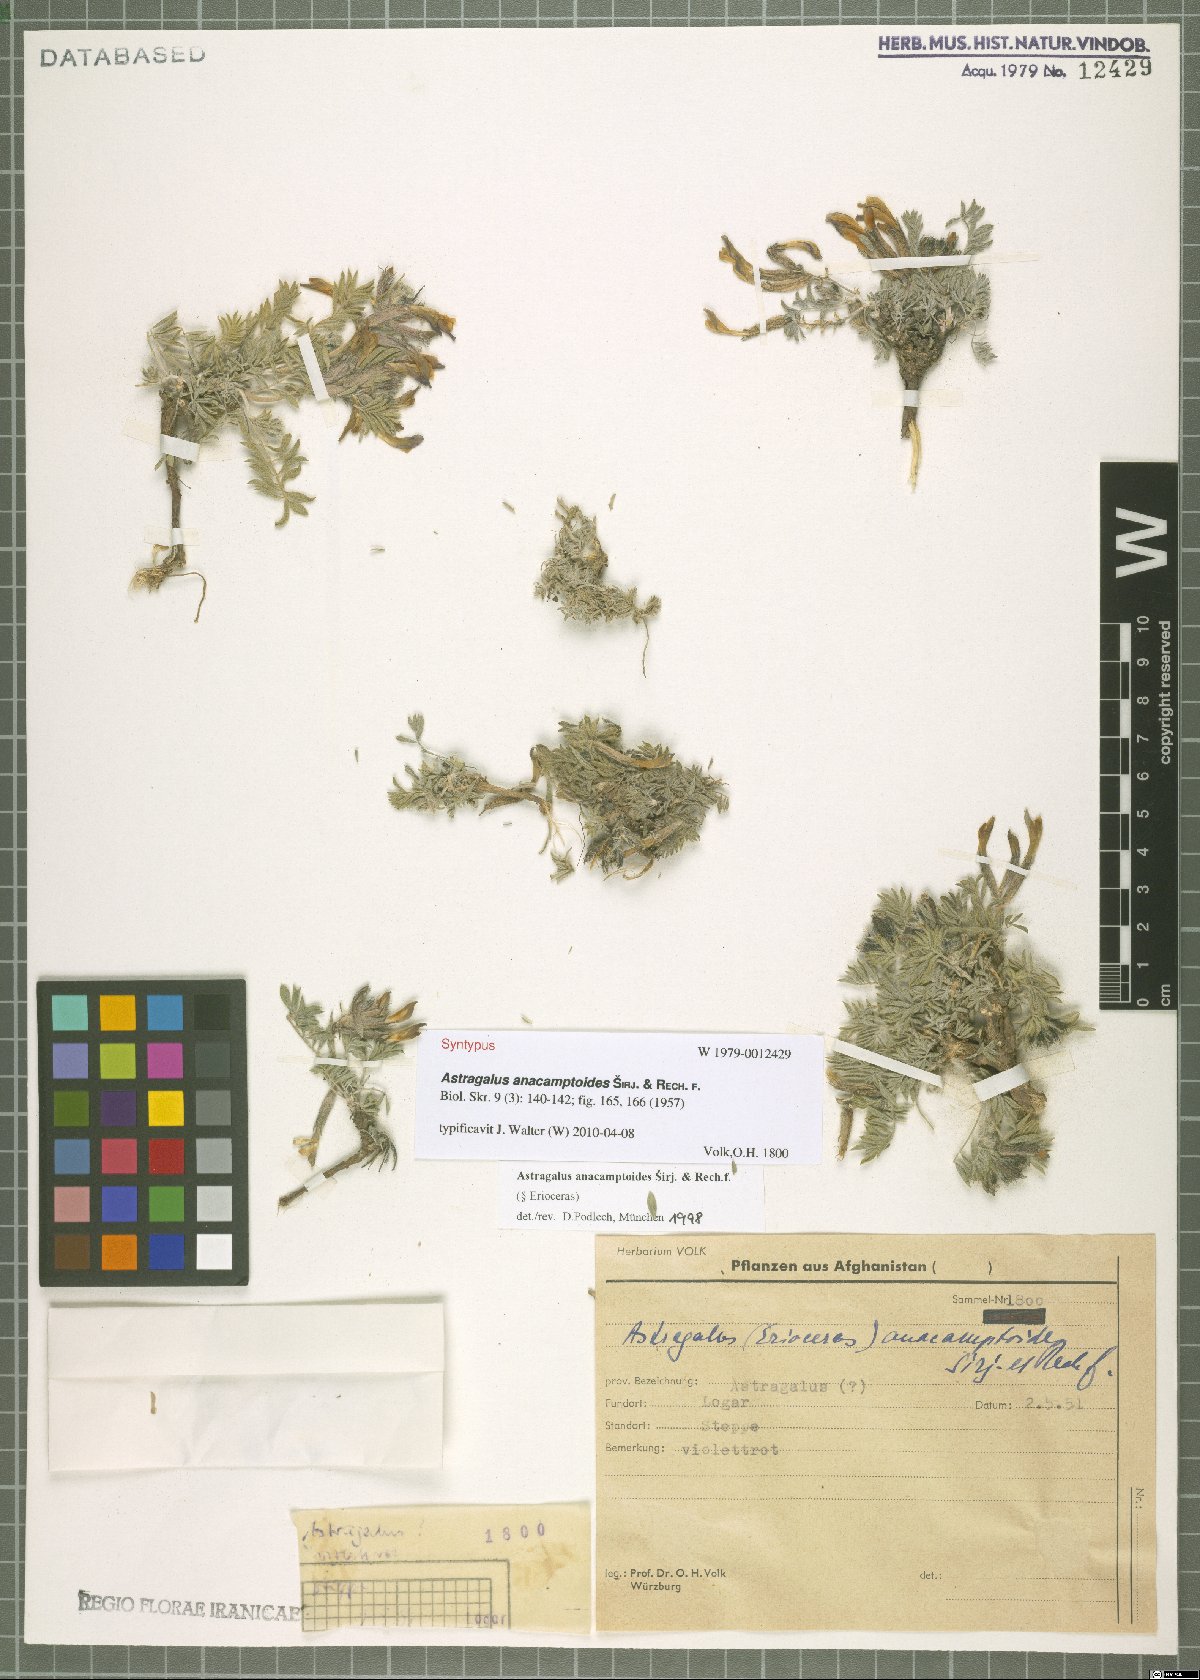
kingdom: Plantae
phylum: Tracheophyta
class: Magnoliopsida
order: Fabales
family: Fabaceae
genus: Astragalus
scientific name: Astragalus anacamptoides
